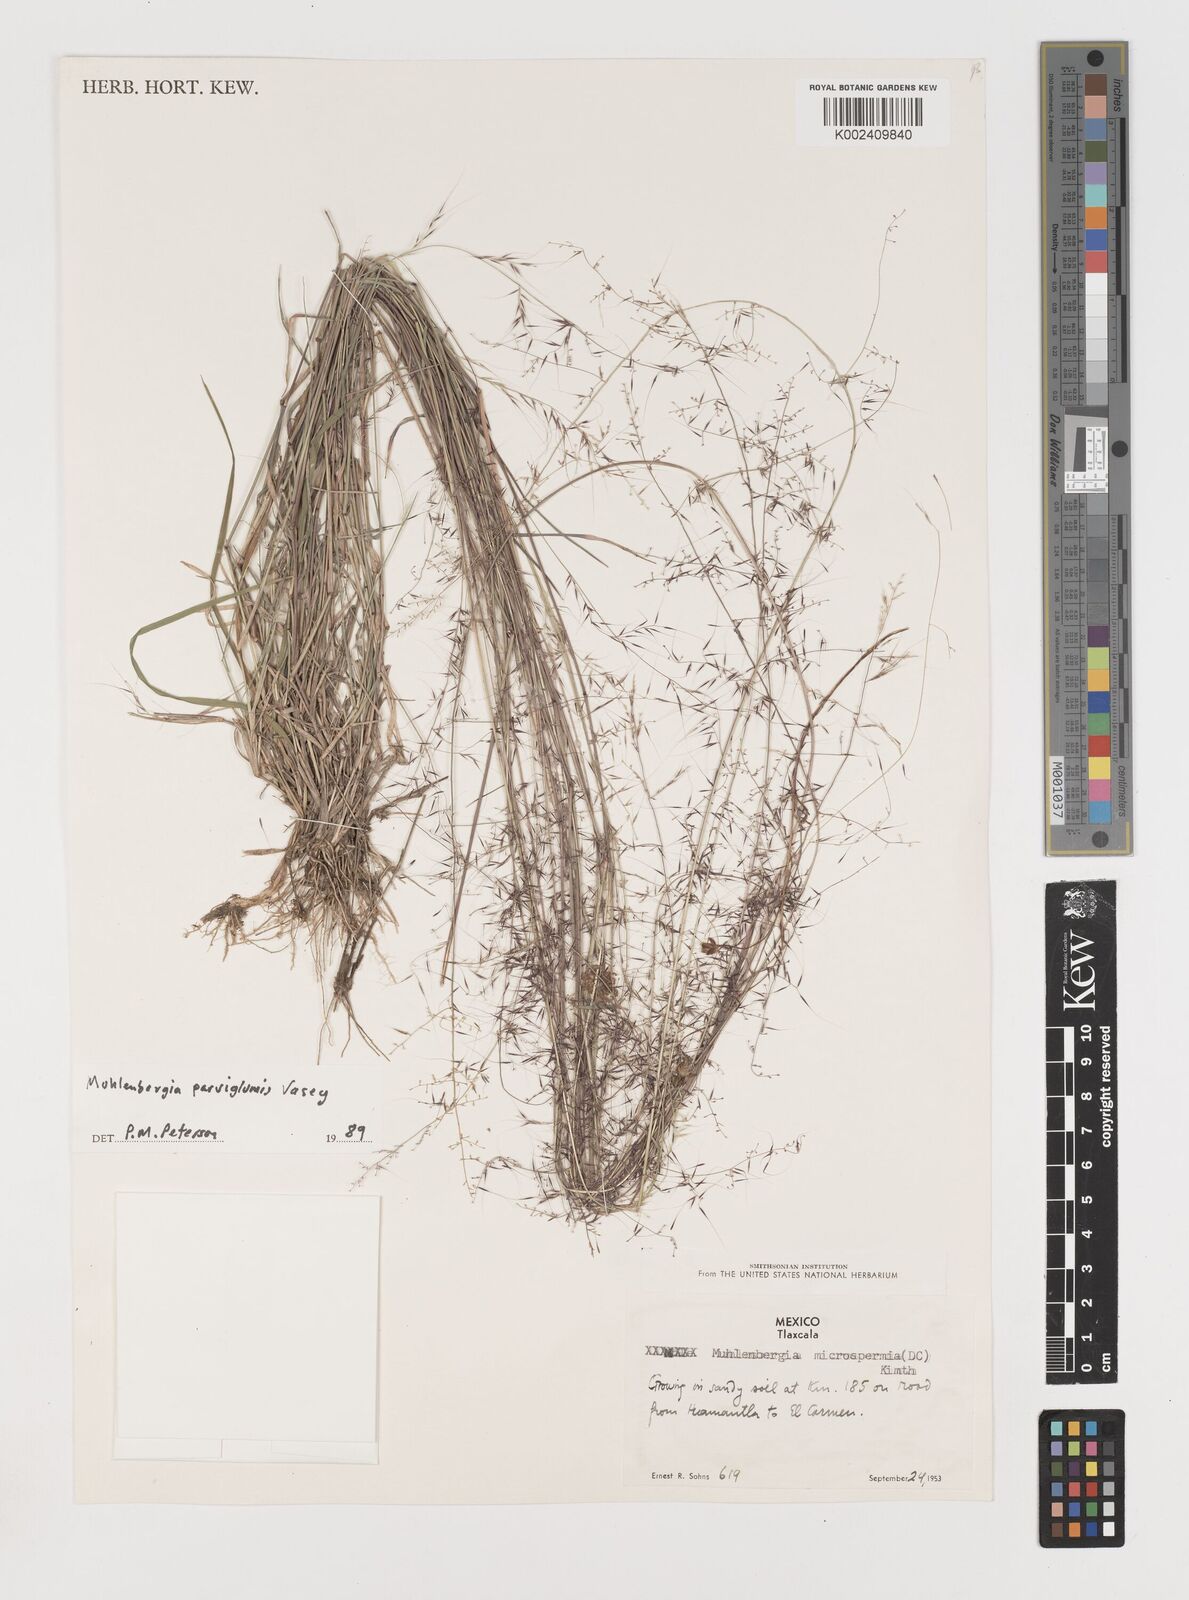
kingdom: Plantae
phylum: Tracheophyta
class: Liliopsida
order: Poales
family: Poaceae
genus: Muhlenbergia
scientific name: Muhlenbergia spiciformis
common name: Longawn muhly
